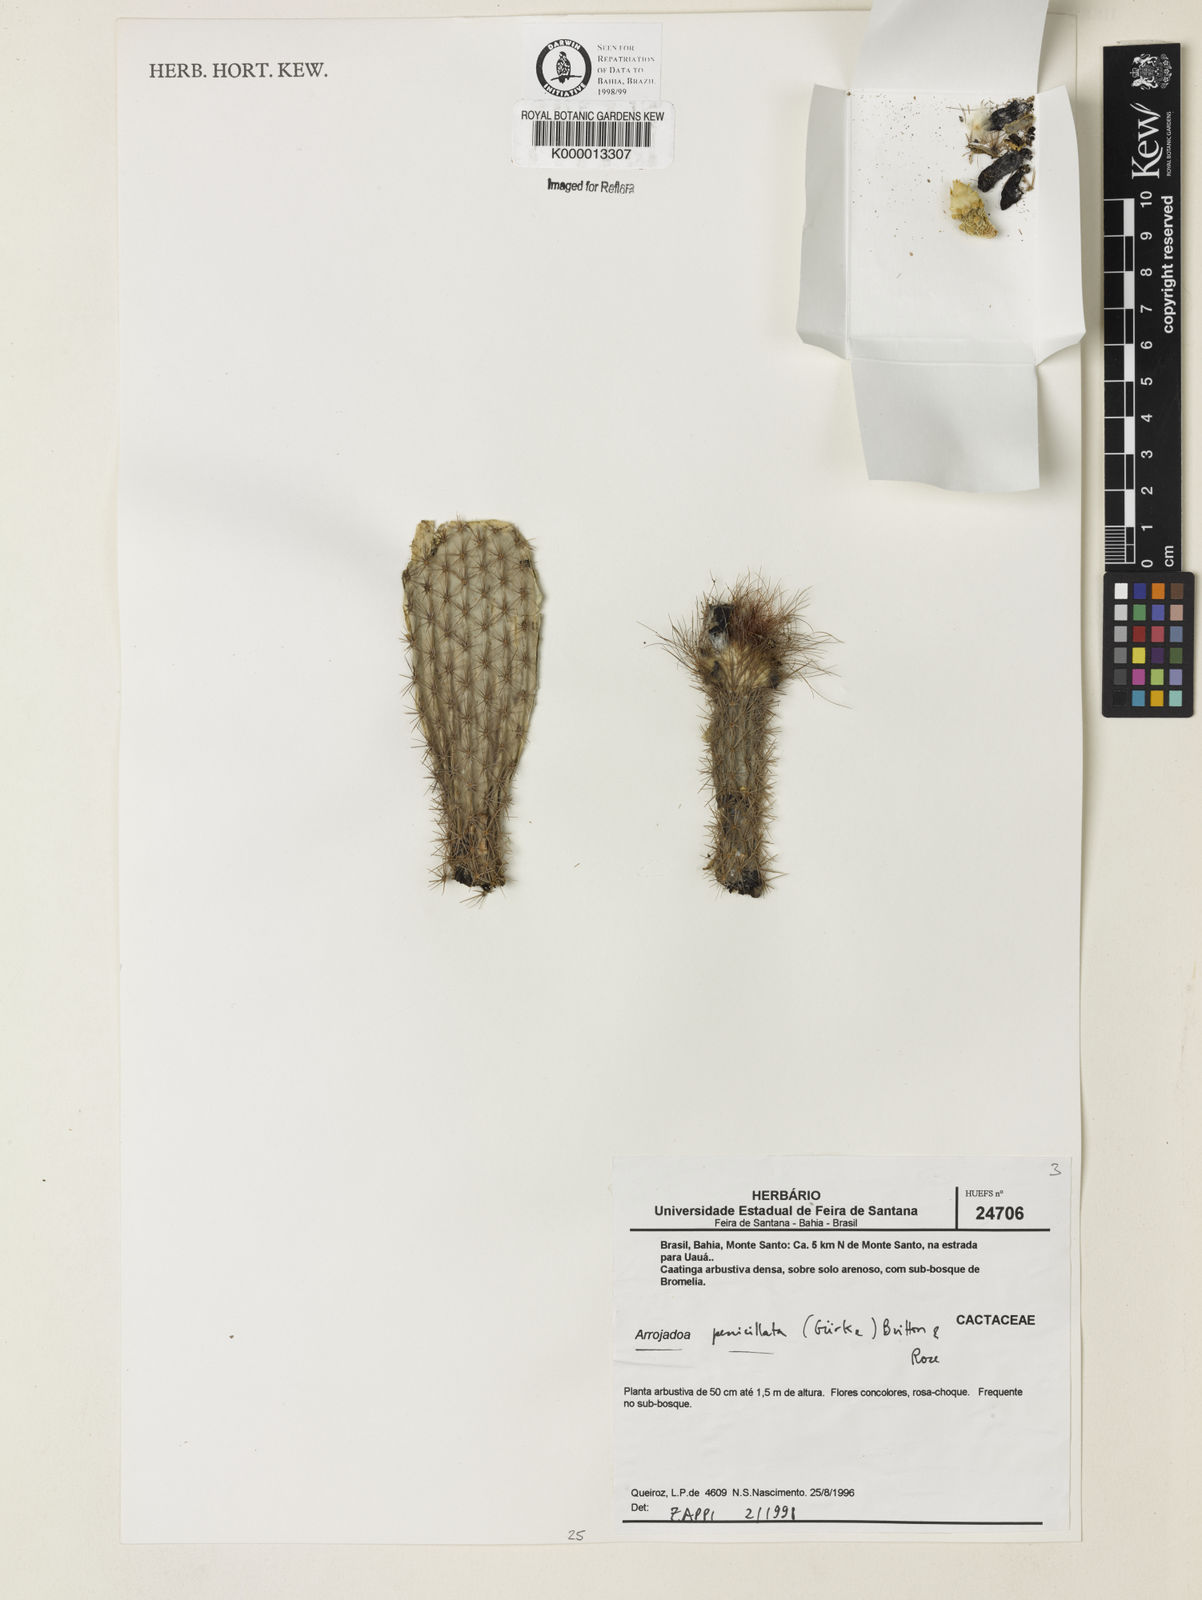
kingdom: Plantae
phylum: Tracheophyta
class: Magnoliopsida
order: Caryophyllales
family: Cactaceae
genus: Arrojadoa
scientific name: Arrojadoa penicillata
